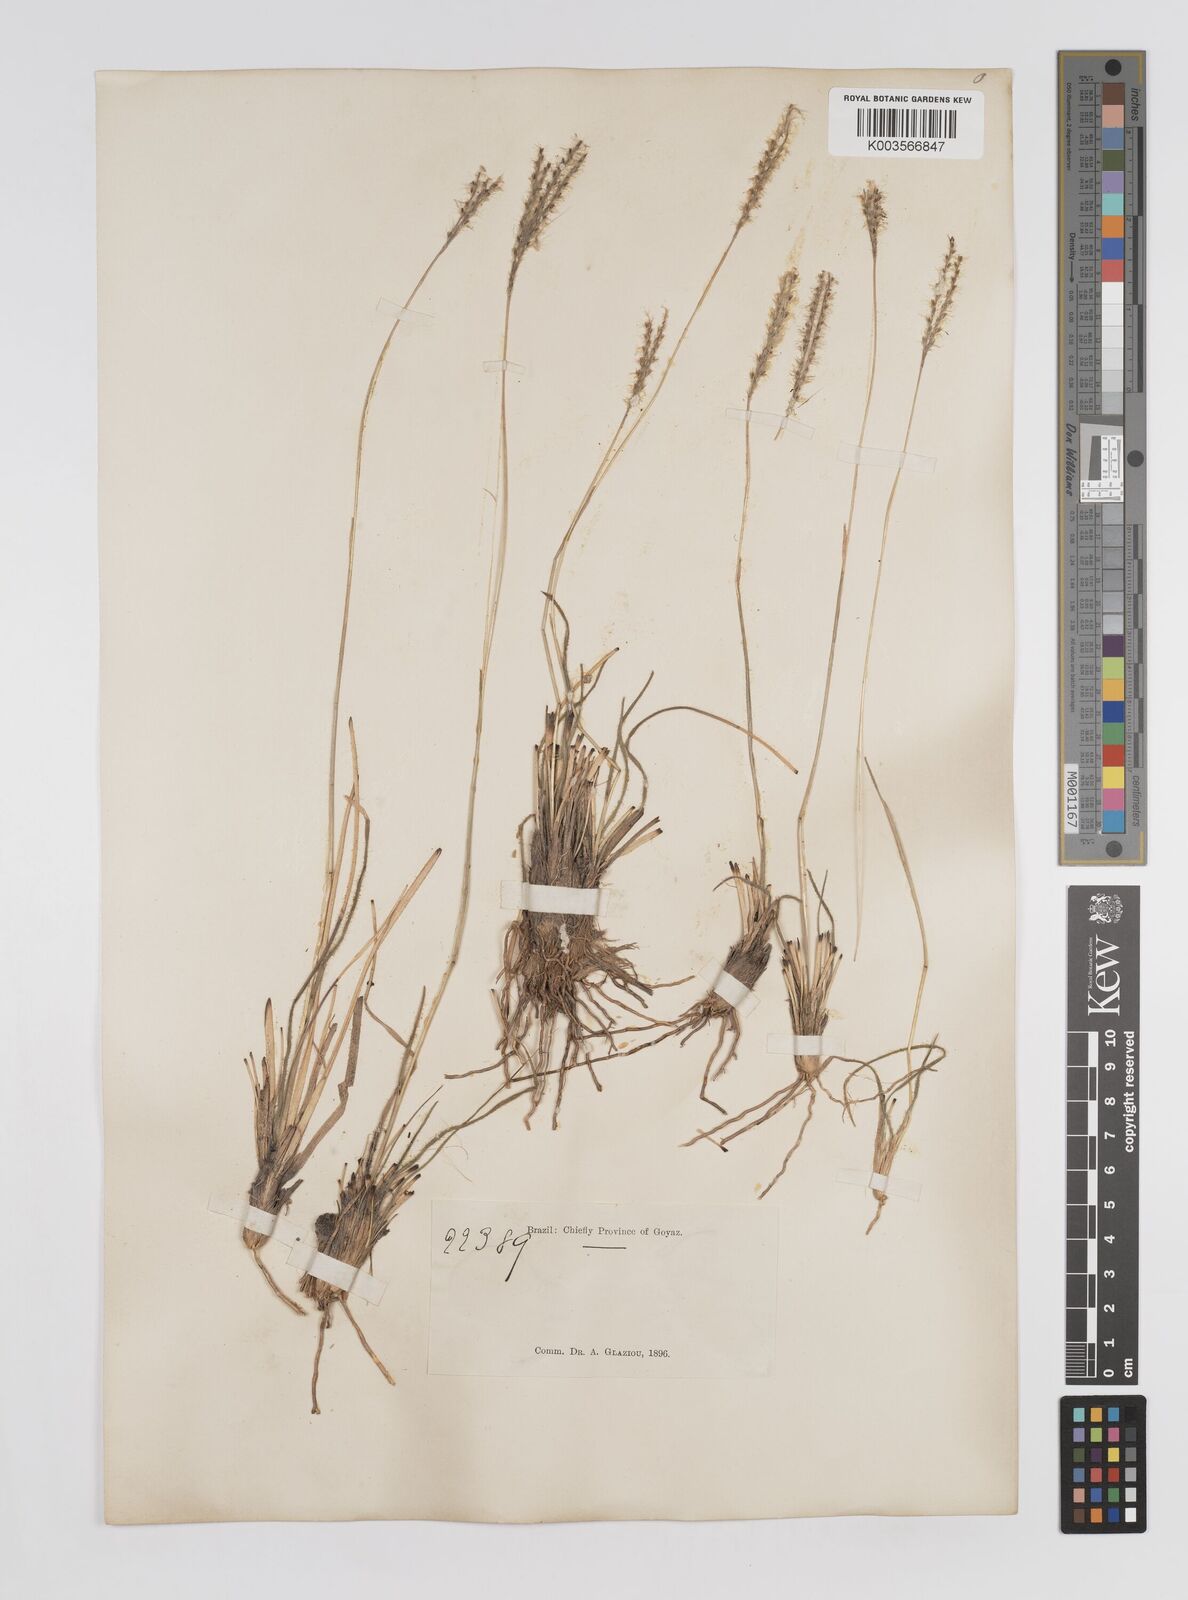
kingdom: Plantae
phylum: Tracheophyta
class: Liliopsida
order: Poales
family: Poaceae
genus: Axonopus
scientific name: Axonopus brasiliensis
